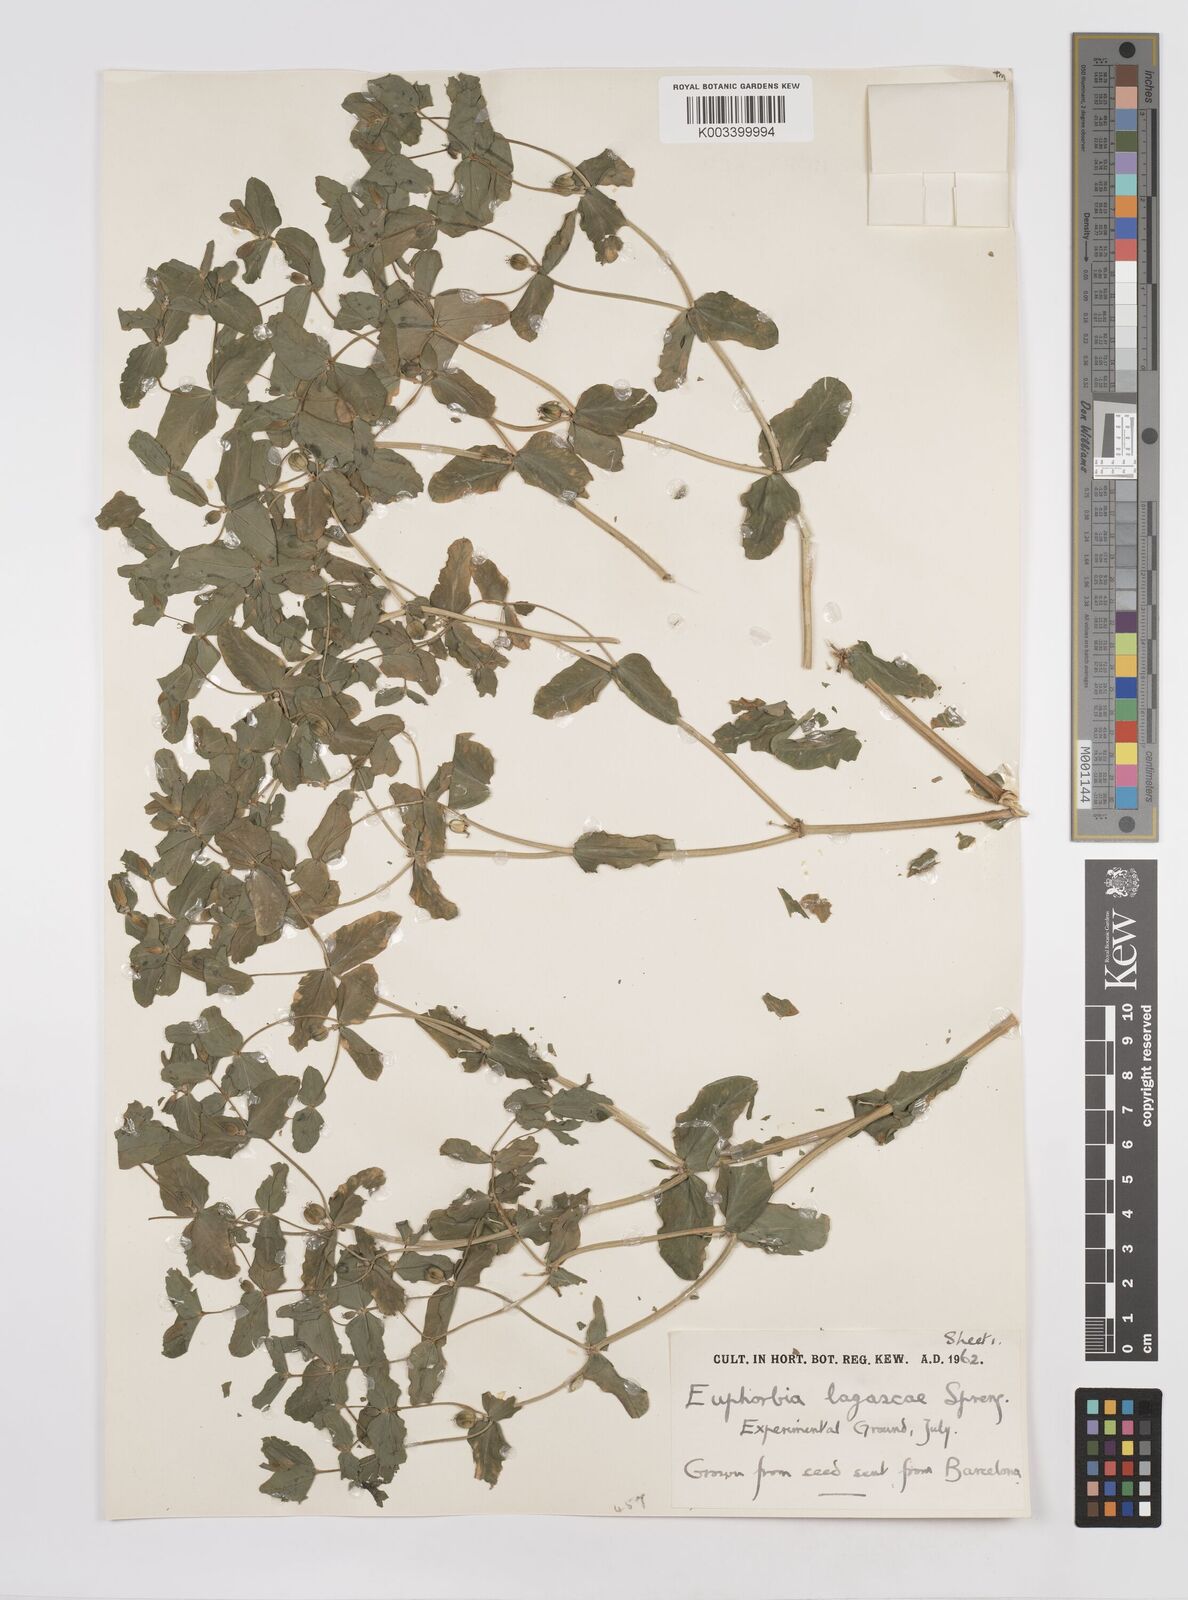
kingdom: Plantae
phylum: Tracheophyta
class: Magnoliopsida
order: Malpighiales
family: Euphorbiaceae
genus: Euphorbia
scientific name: Euphorbia
